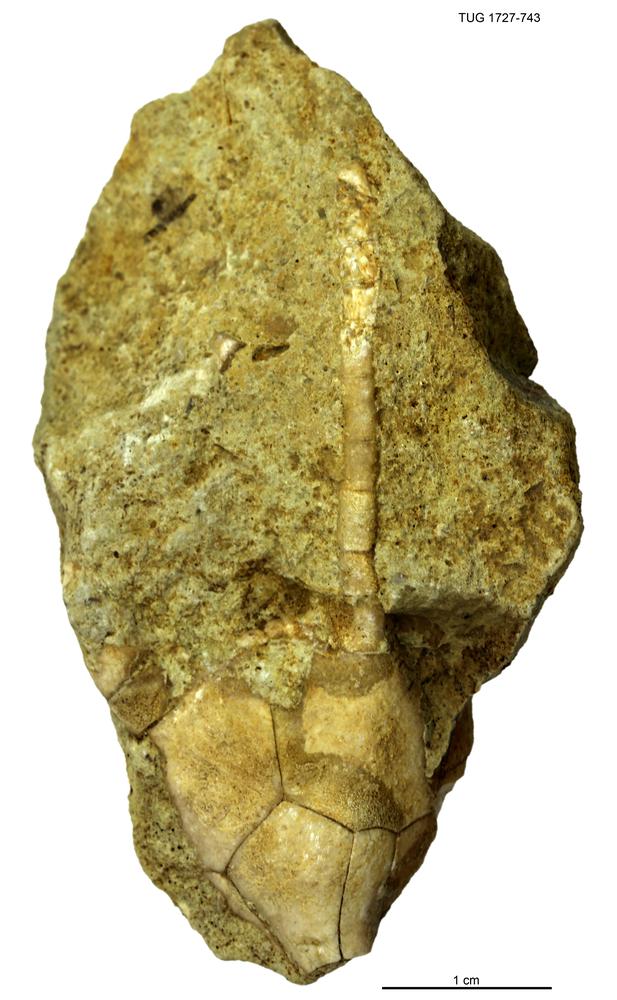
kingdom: Animalia
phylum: Echinodermata
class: Crinoidea
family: Hybocrinidae
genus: Hoplocrinus
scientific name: Hoplocrinus
